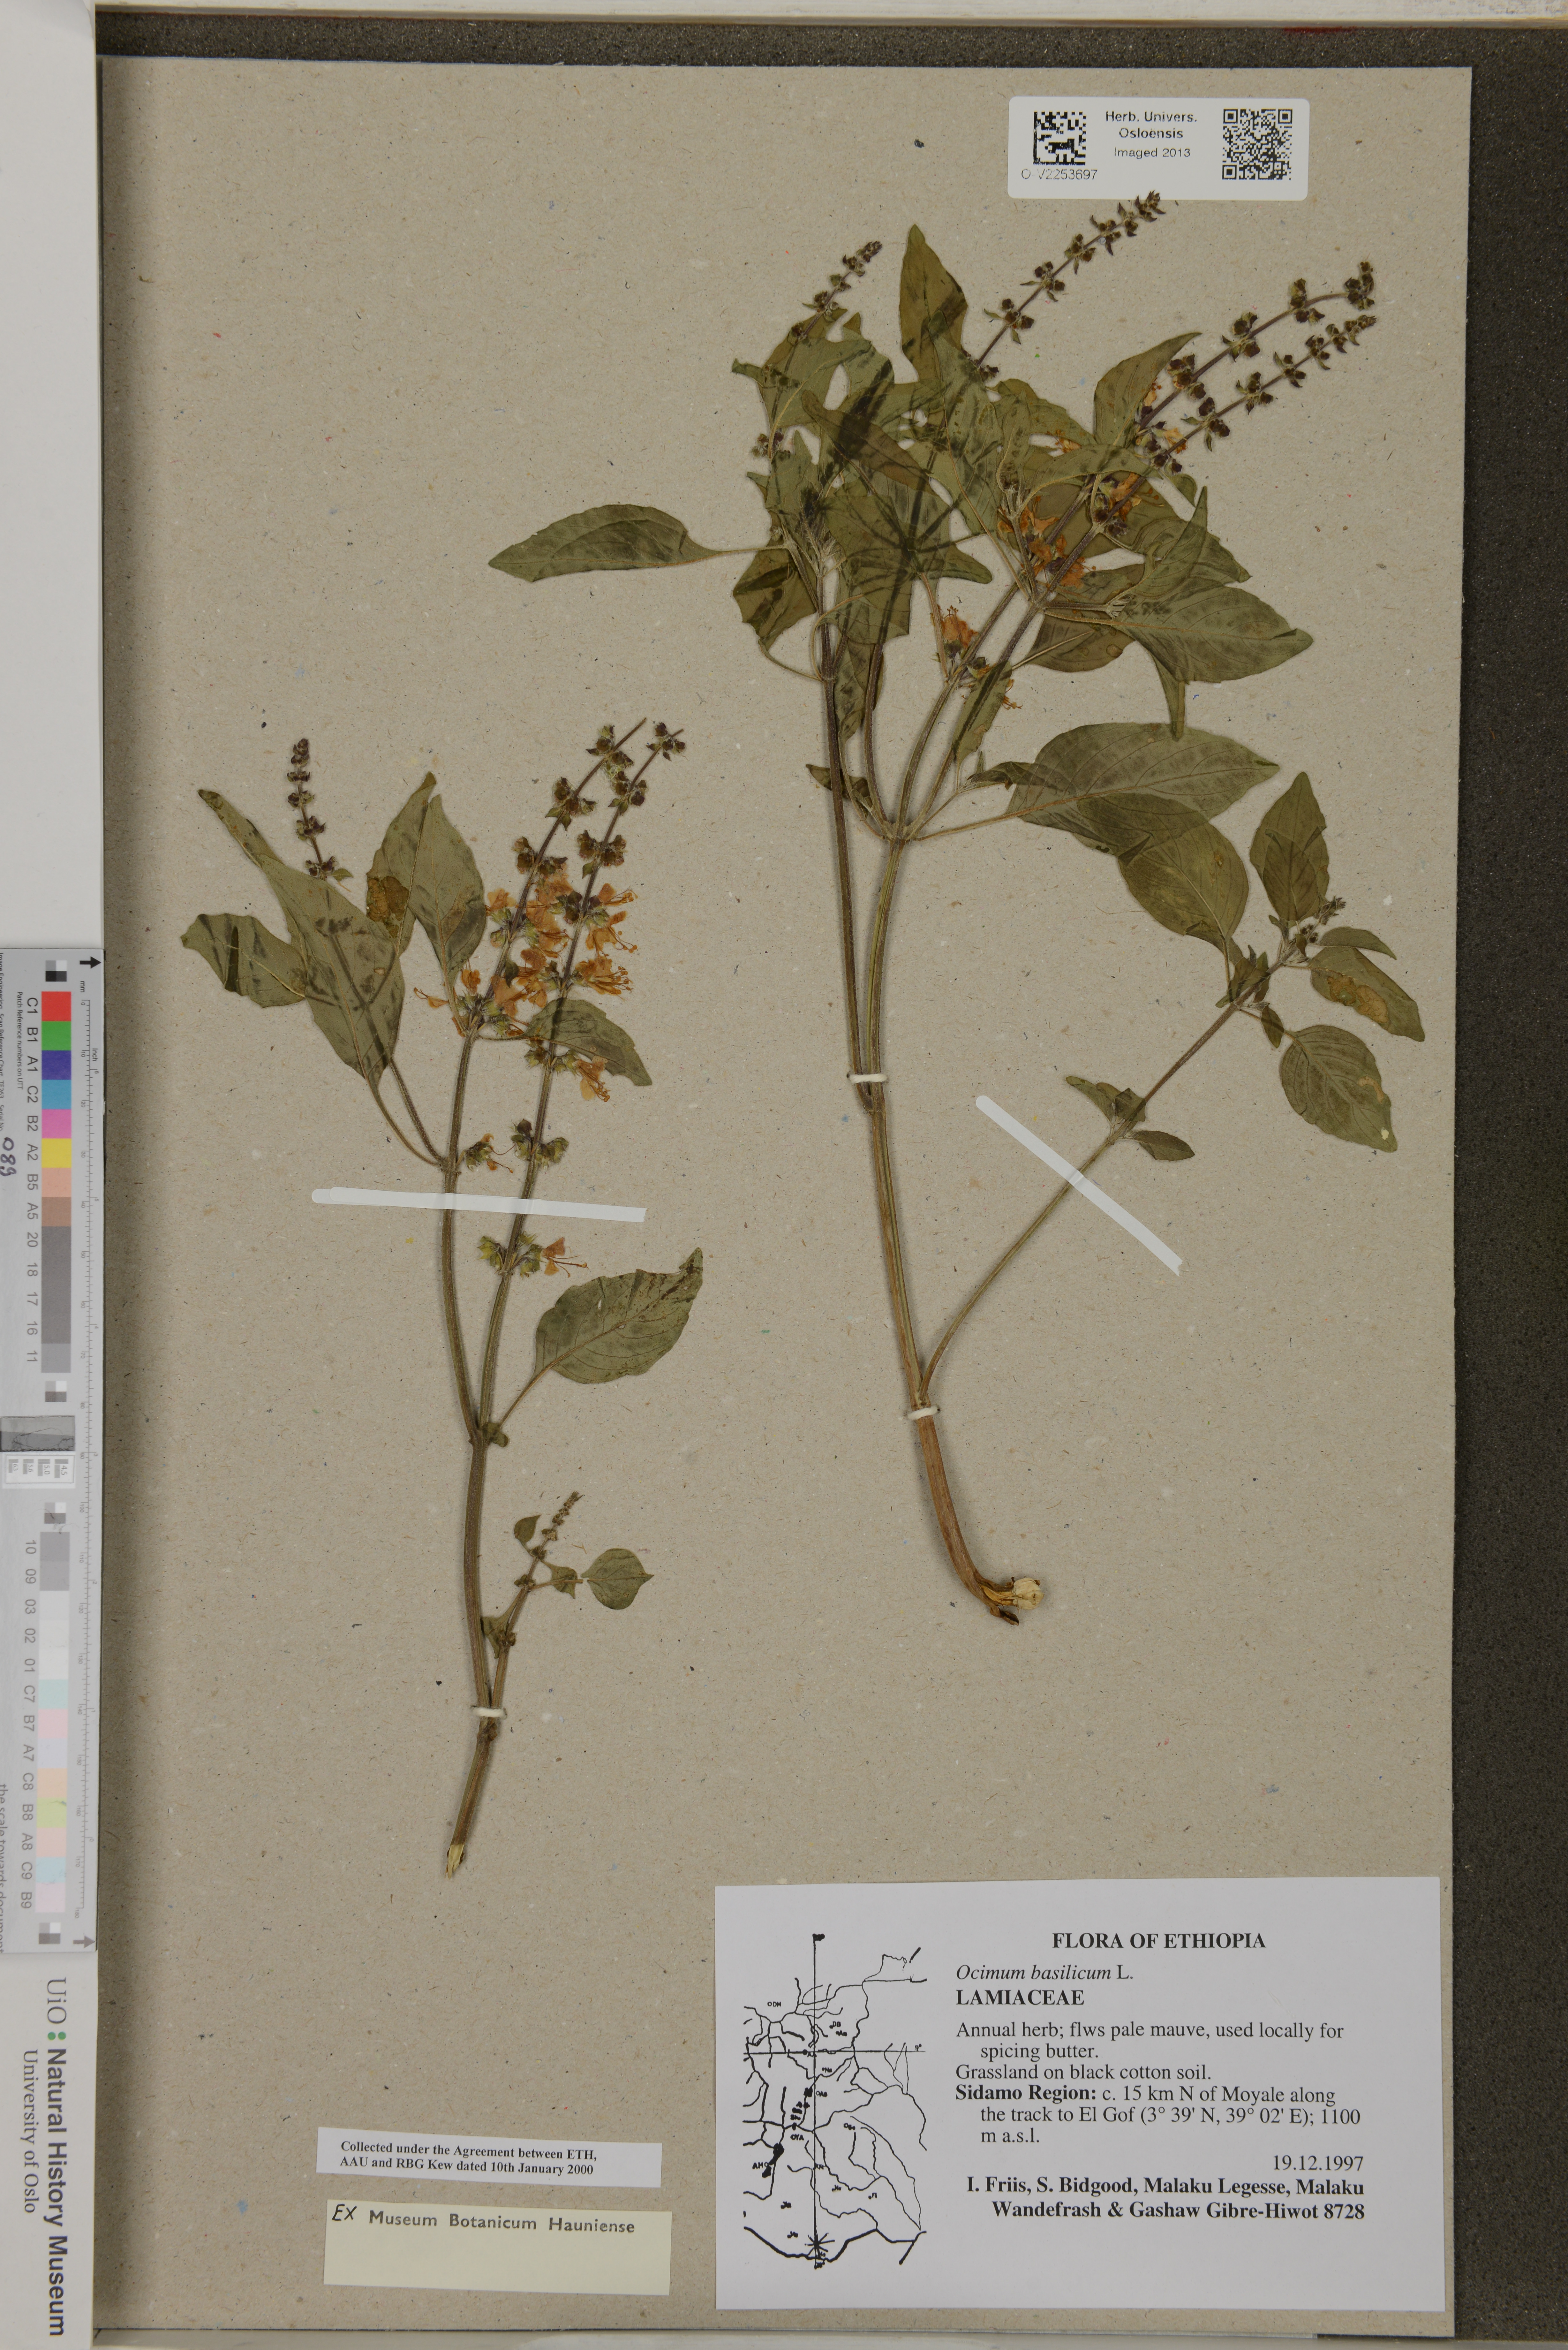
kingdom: Plantae
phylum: Tracheophyta
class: Magnoliopsida
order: Lamiales
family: Lamiaceae
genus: Ocimum
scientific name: Ocimum basilicum
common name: Sweet basil
